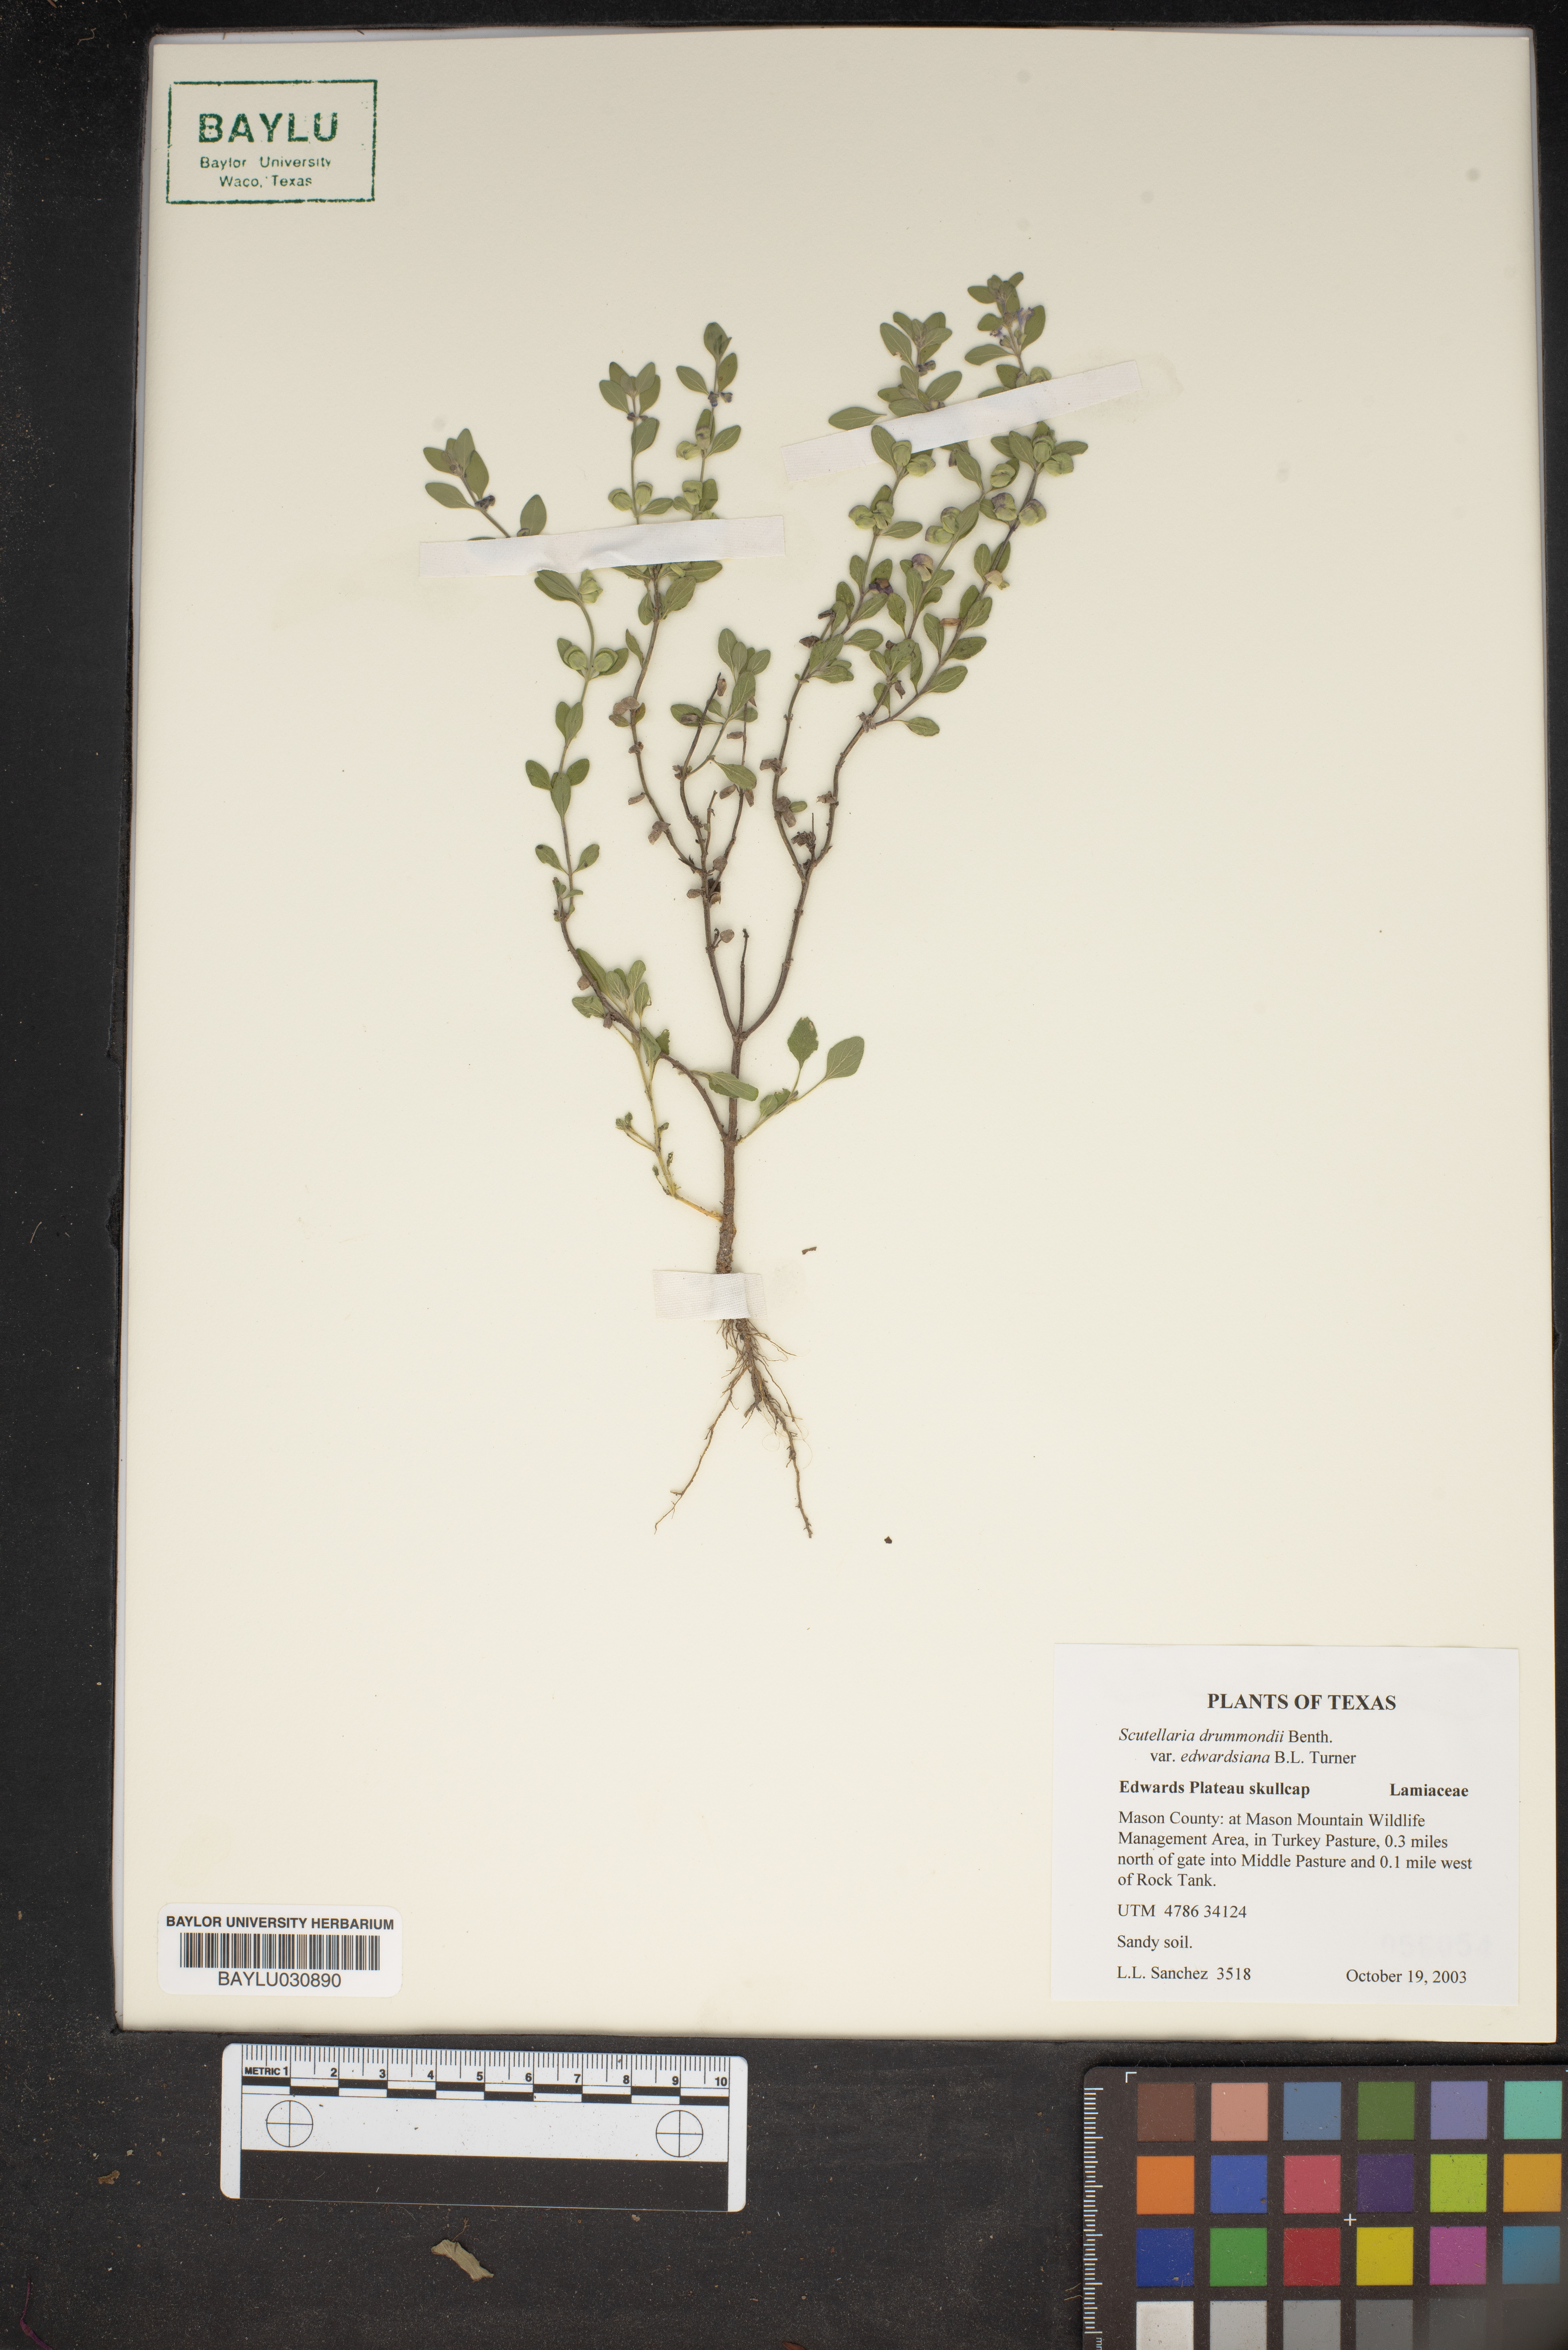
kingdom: Plantae
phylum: Tracheophyta
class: Magnoliopsida
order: Lamiales
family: Lamiaceae
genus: Scutellaria
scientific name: Scutellaria drummondii
